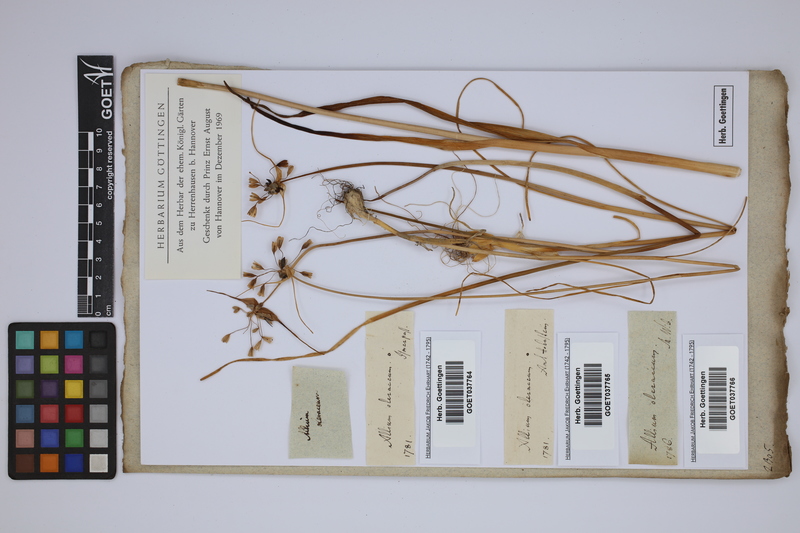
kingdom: Plantae
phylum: Tracheophyta
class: Liliopsida
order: Asparagales
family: Amaryllidaceae
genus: Allium
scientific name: Allium oleraceum
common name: Field garlic
